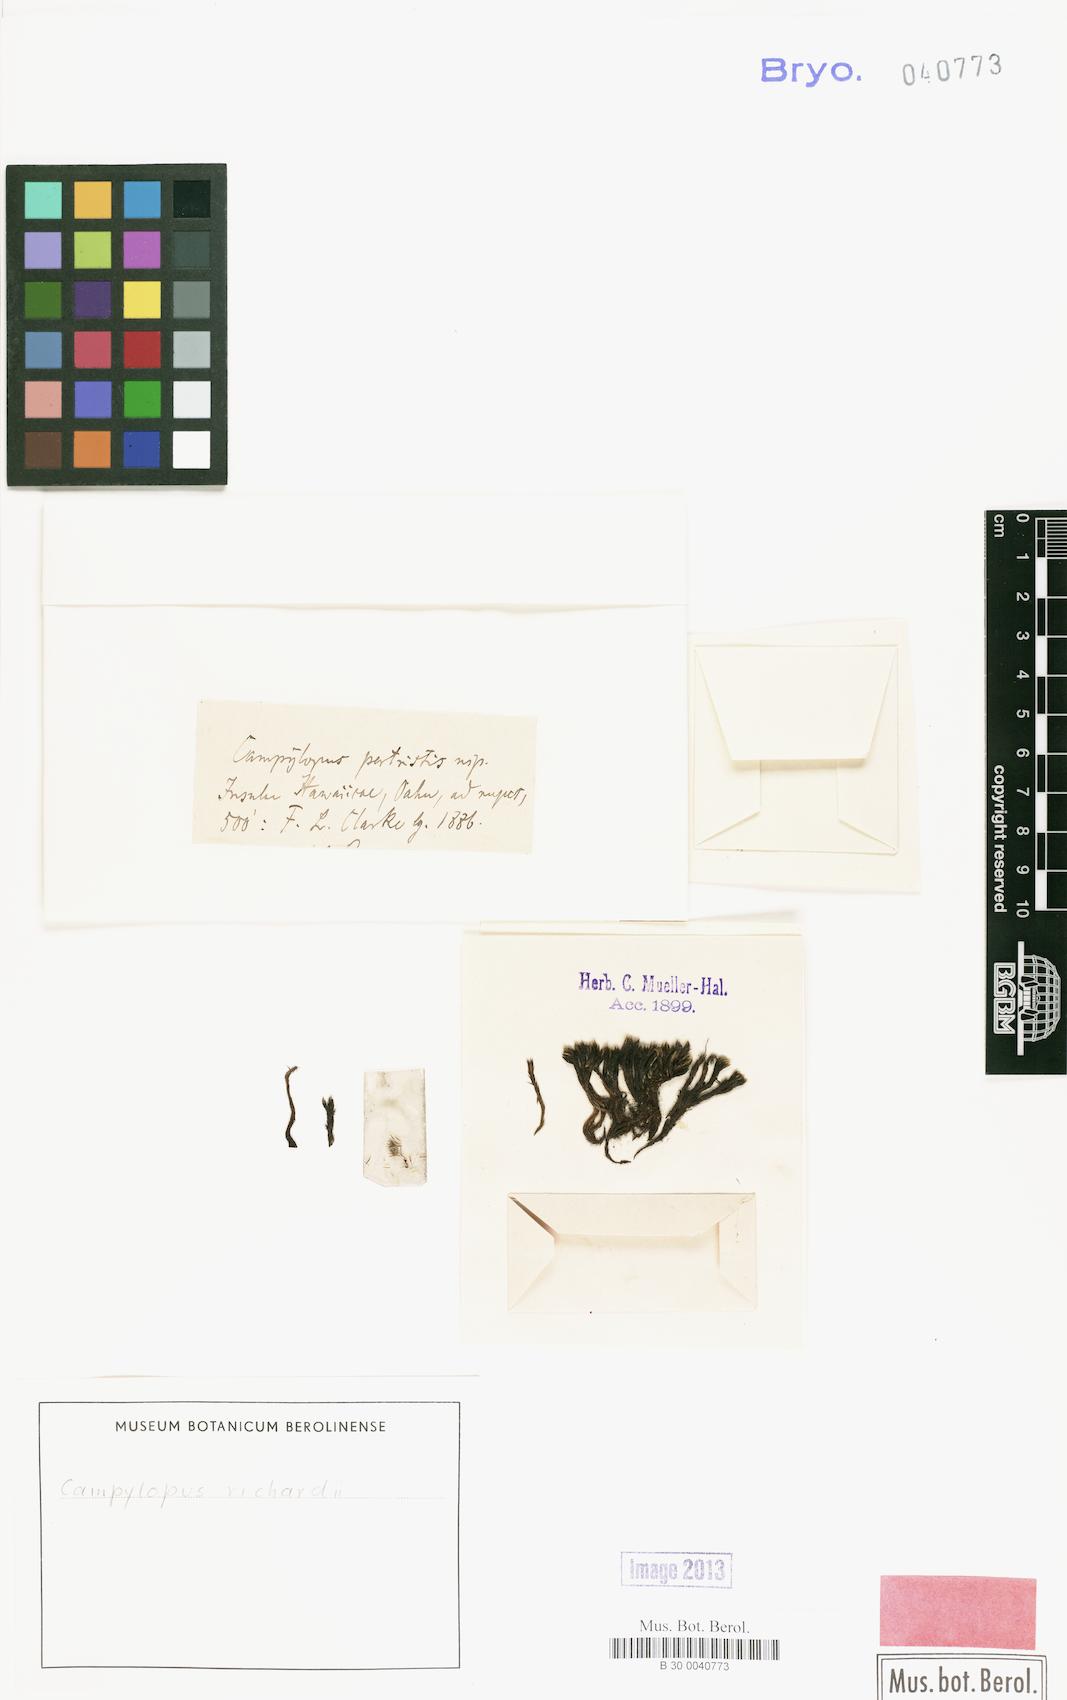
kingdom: Plantae
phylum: Bryophyta
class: Bryopsida
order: Dicranales
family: Leucobryaceae
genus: Campylopus
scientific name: Campylopus richardii
